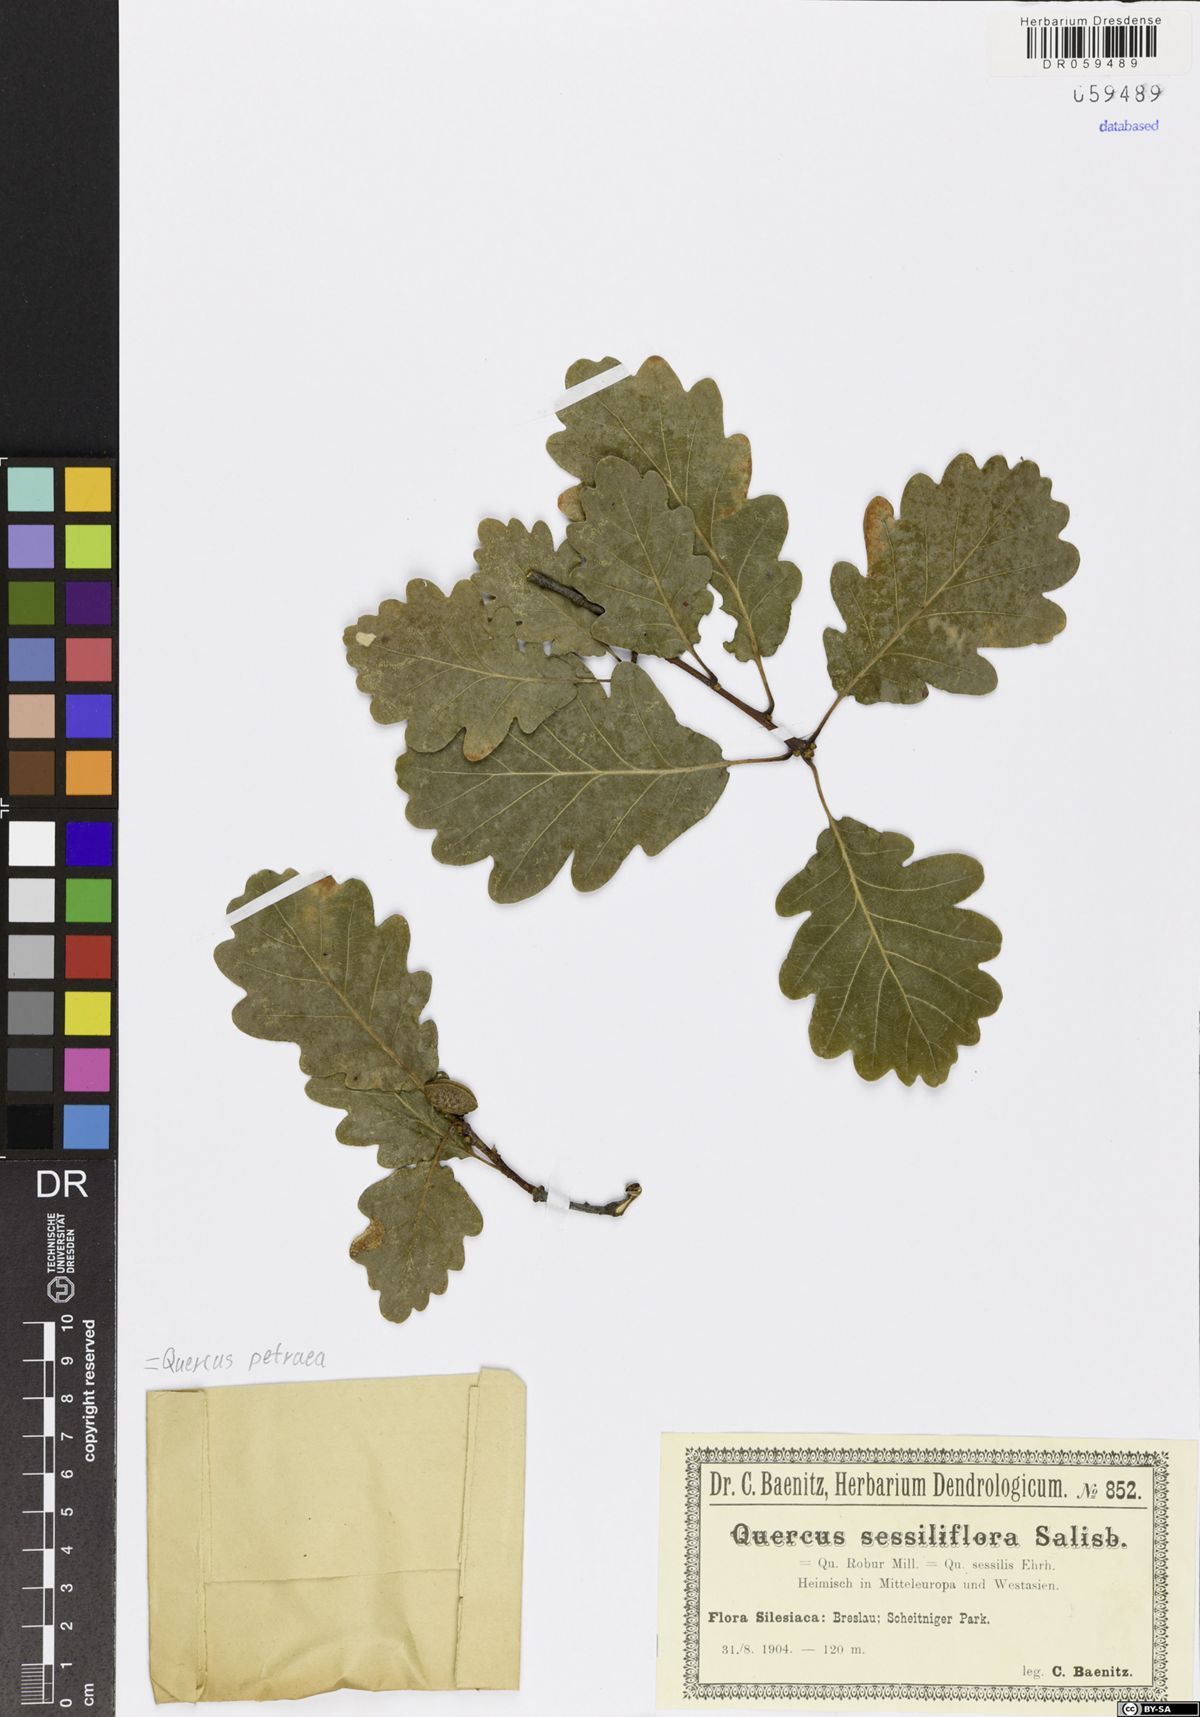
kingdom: Plantae
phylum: Tracheophyta
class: Magnoliopsida
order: Fagales
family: Fagaceae
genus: Quercus
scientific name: Quercus petraea
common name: Sessile oak
